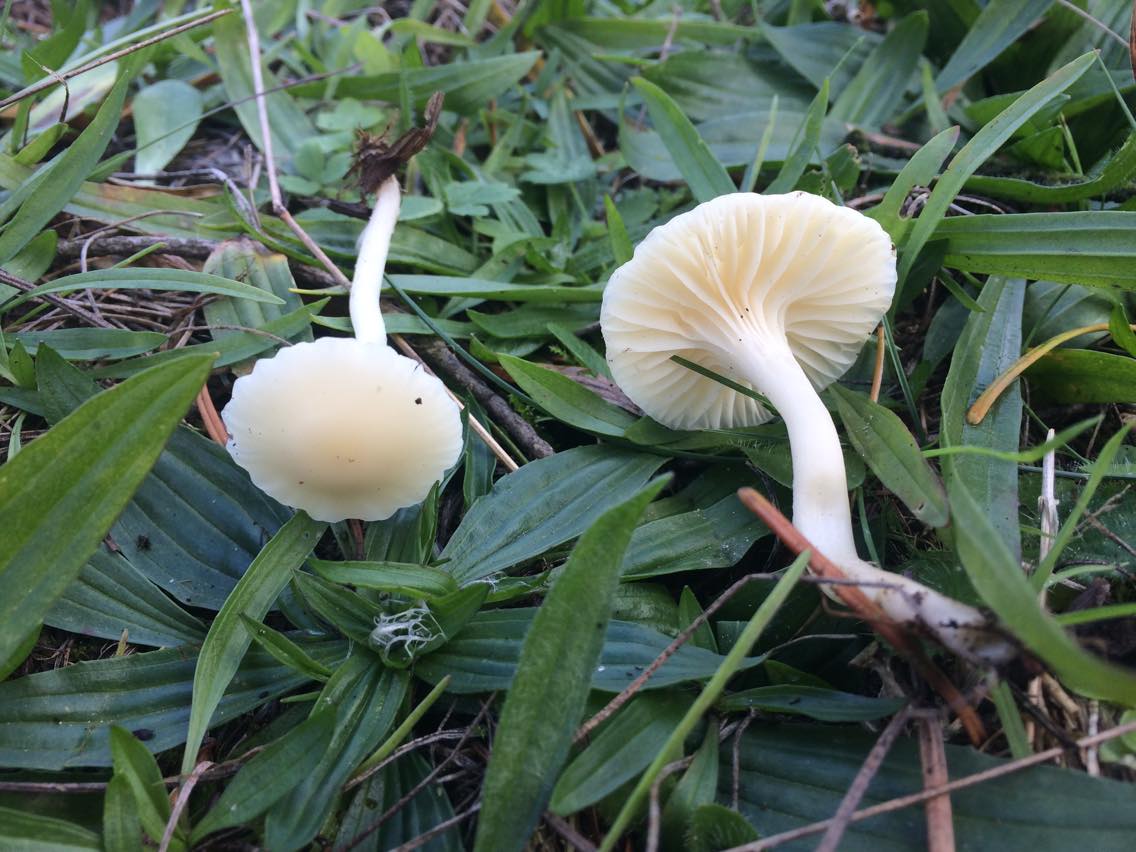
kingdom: Fungi
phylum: Basidiomycota
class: Agaricomycetes
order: Agaricales
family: Hygrophoraceae
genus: Cuphophyllus
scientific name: Cuphophyllus virgineus
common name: snehvid vokshat
